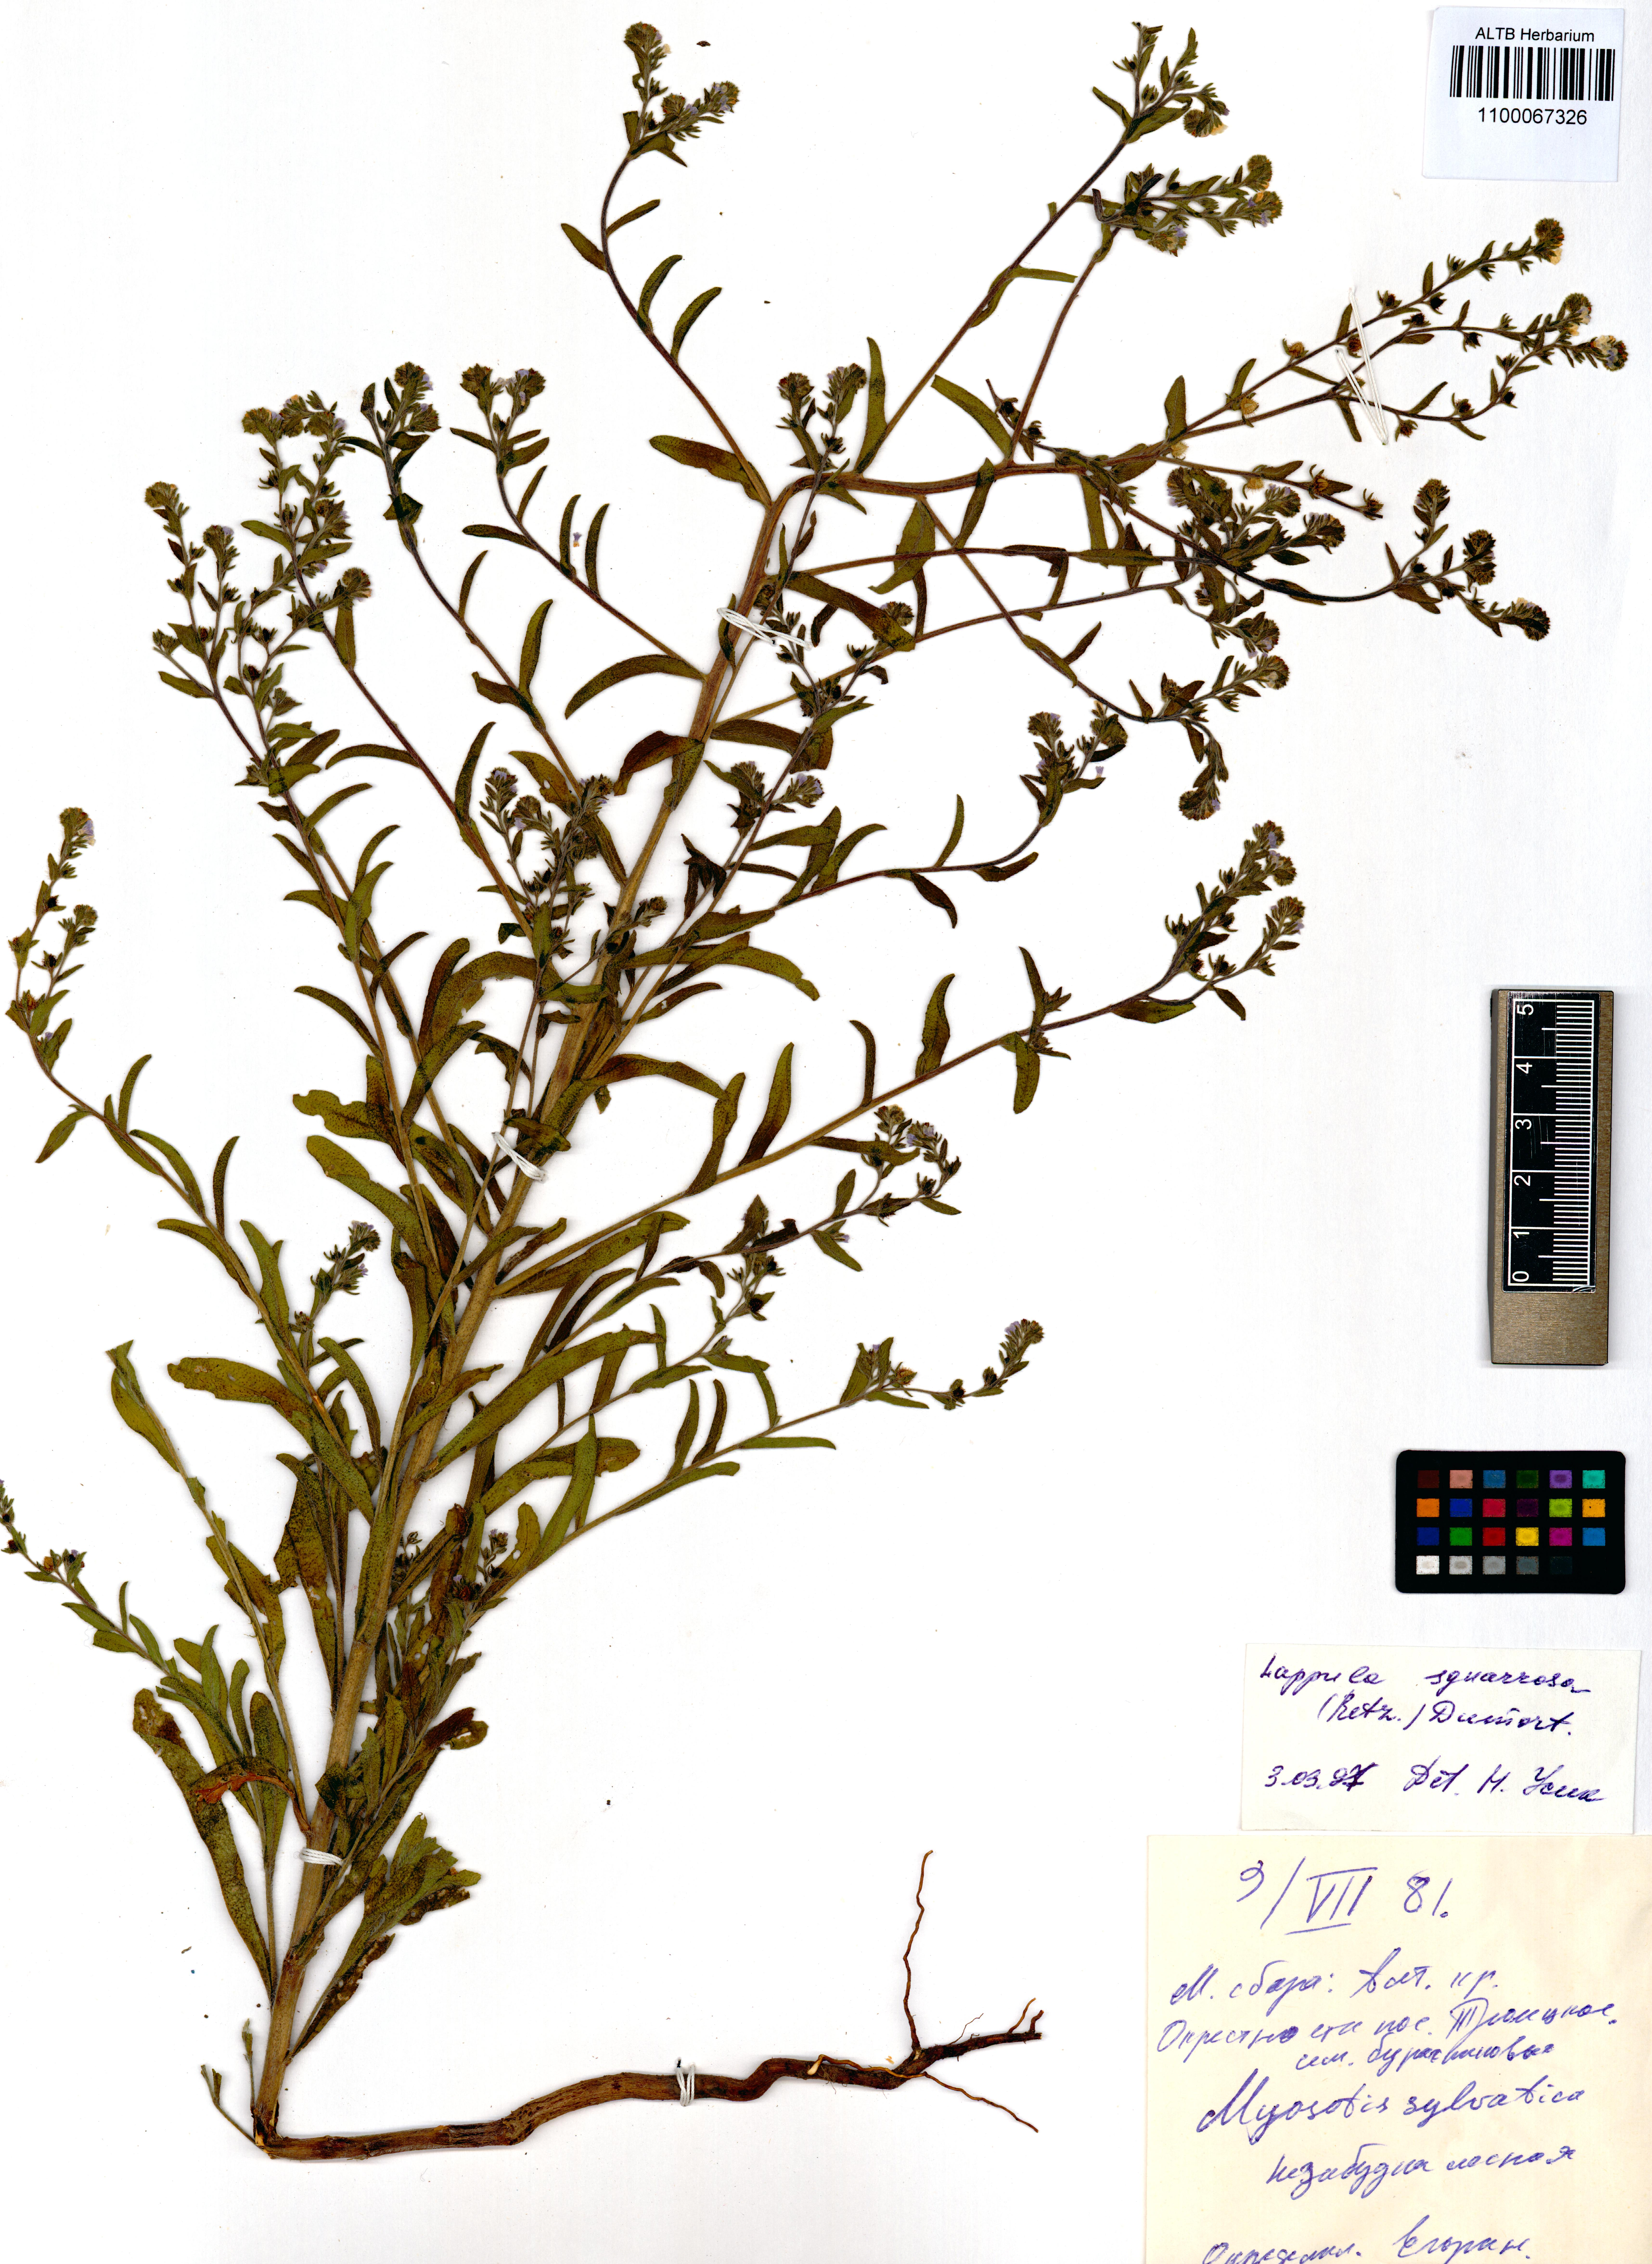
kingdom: Plantae
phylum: Tracheophyta
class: Magnoliopsida
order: Boraginales
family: Boraginaceae
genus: Lappula
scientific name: Lappula squarrosa
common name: European stickseed
